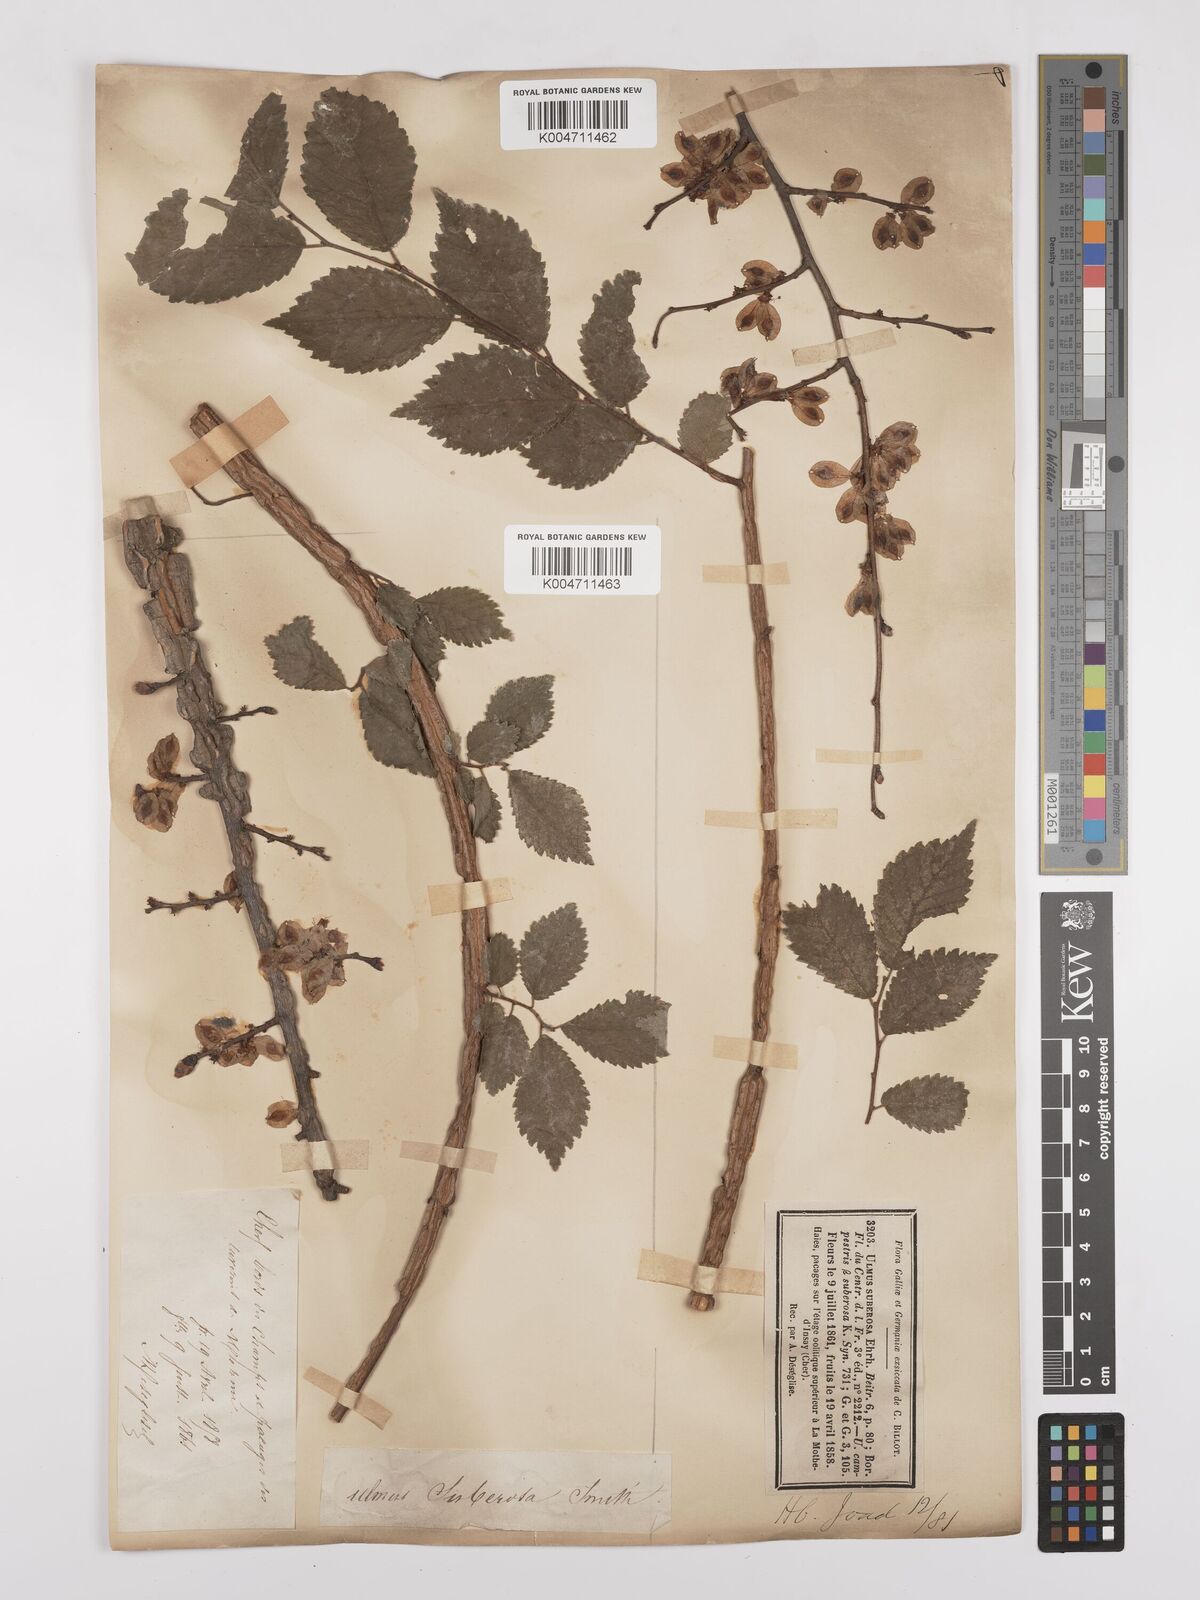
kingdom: Plantae
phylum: Tracheophyta
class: Magnoliopsida
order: Rosales
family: Ulmaceae
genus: Ulmus
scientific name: Ulmus minor
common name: Small-leaved elm
